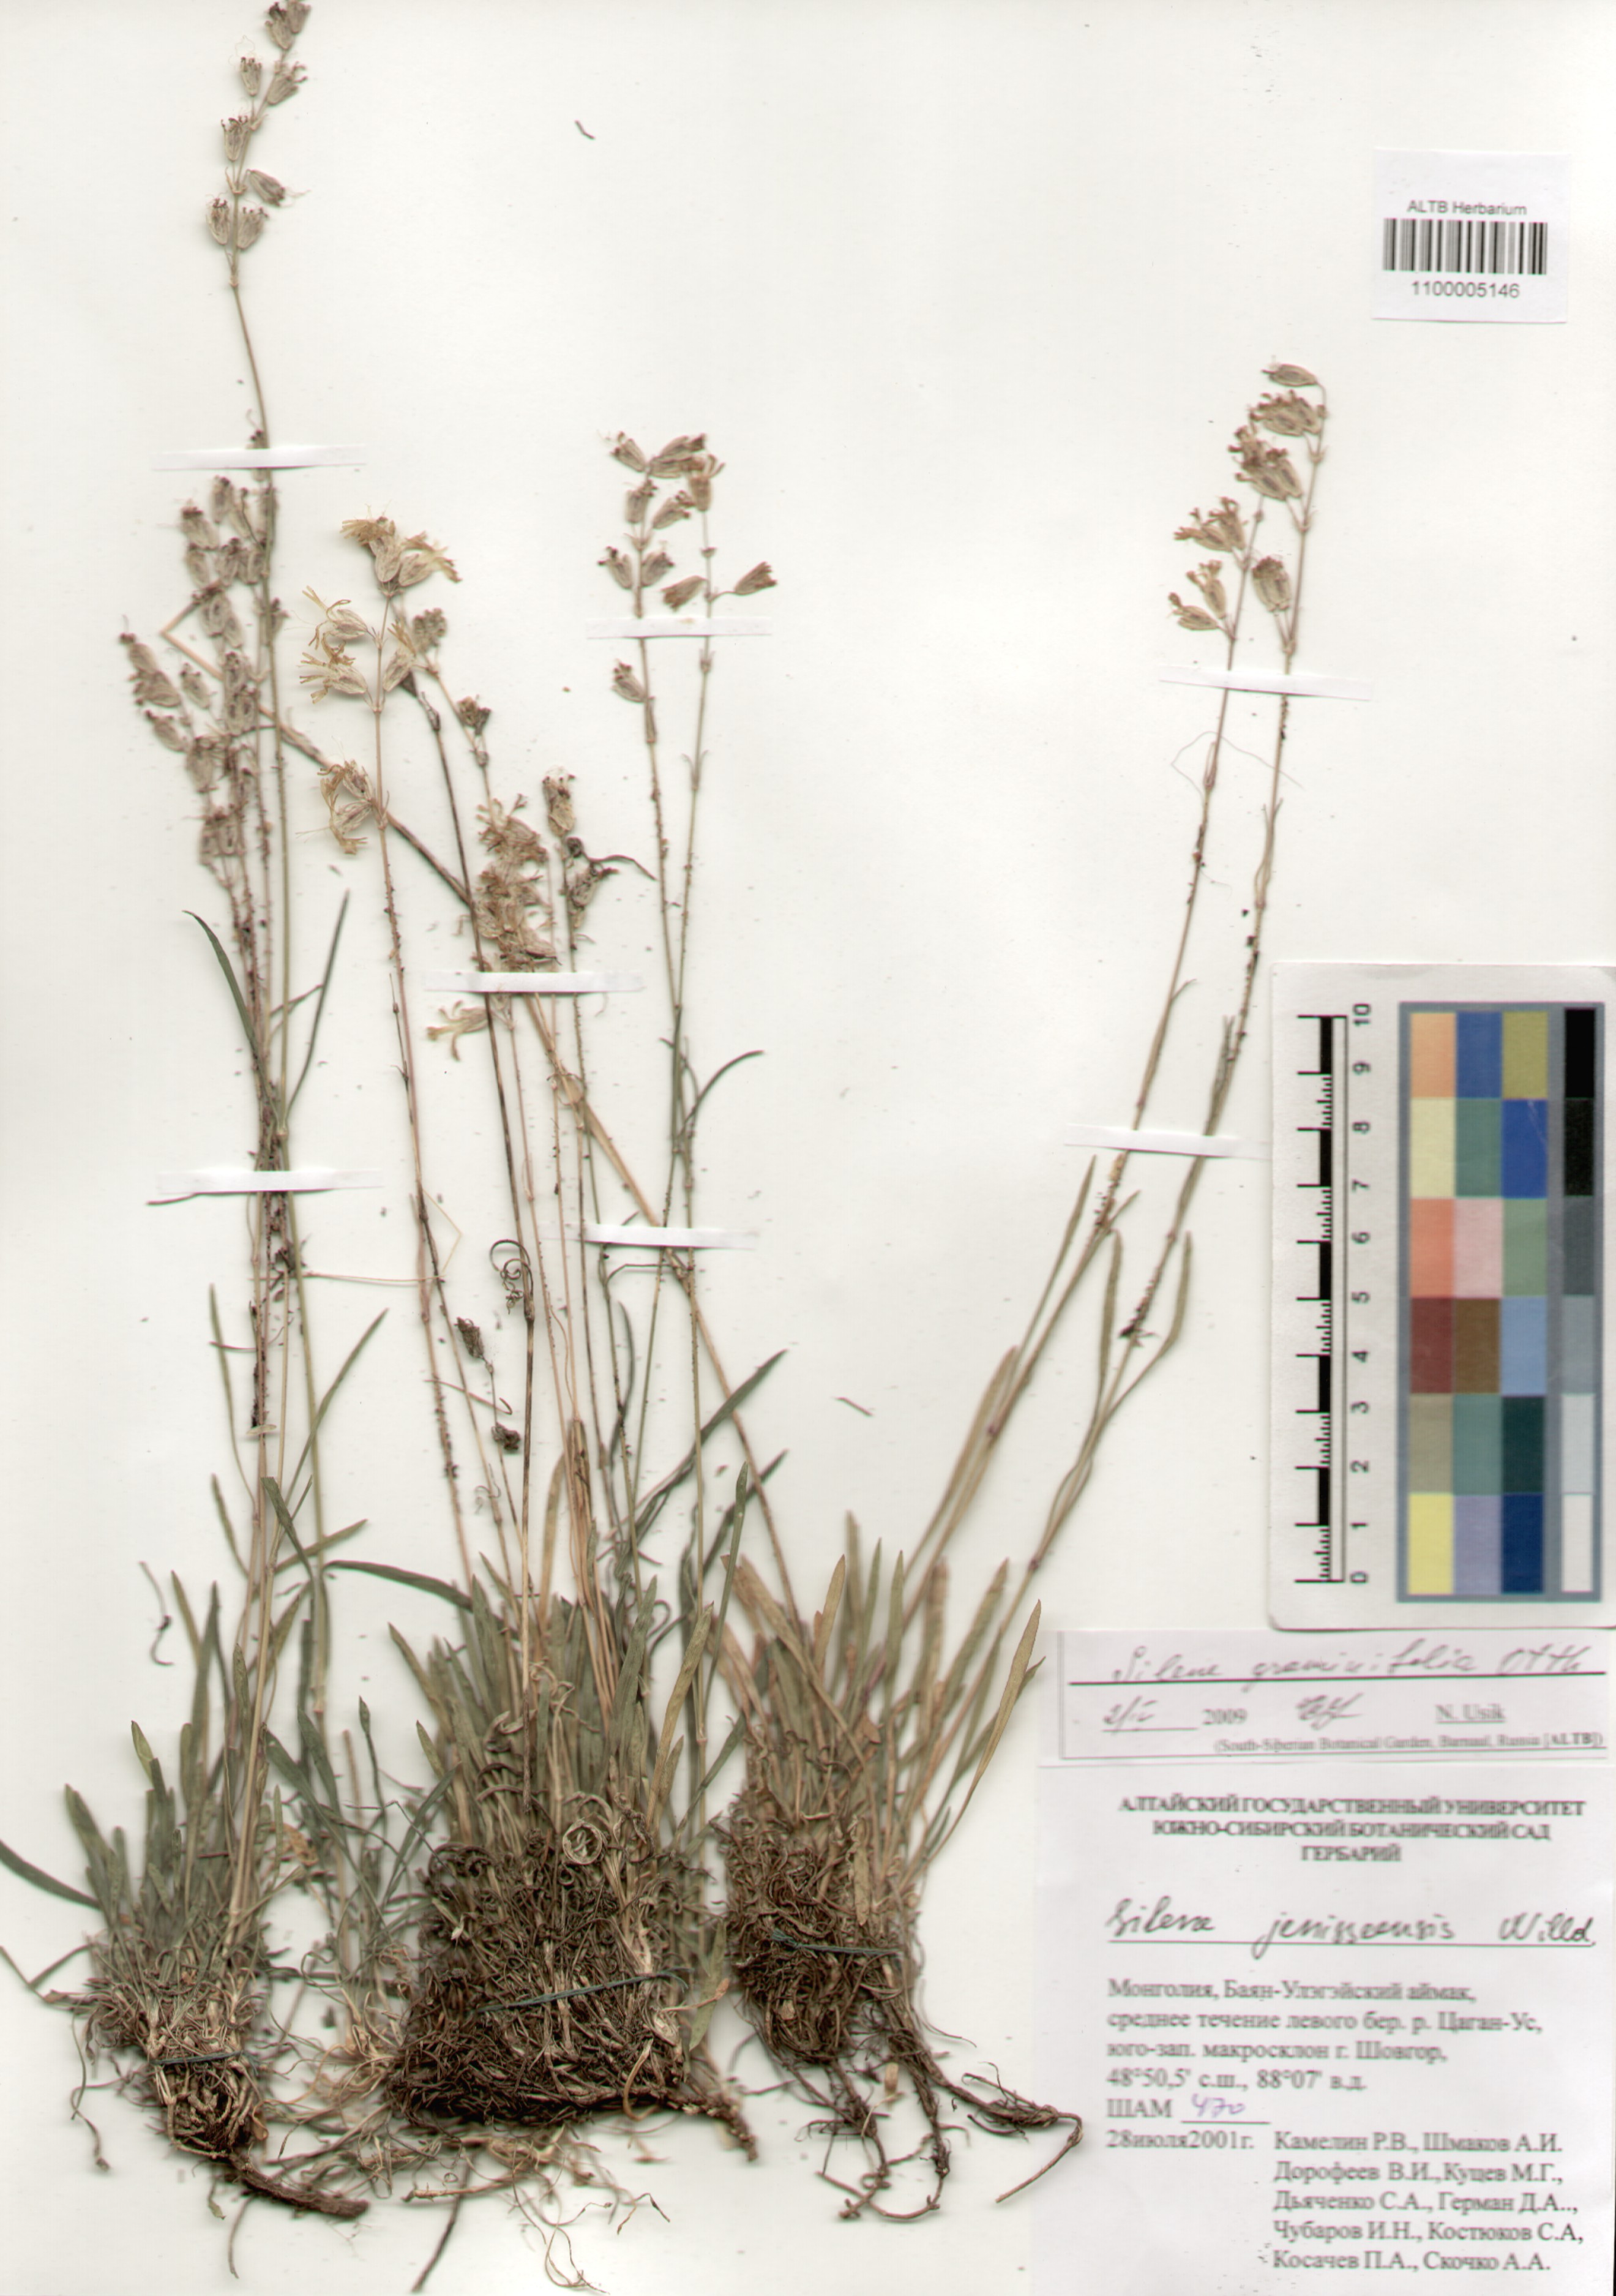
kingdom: Plantae
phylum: Tracheophyta
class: Magnoliopsida
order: Caryophyllales
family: Caryophyllaceae
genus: Silene
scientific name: Silene graminifolia
